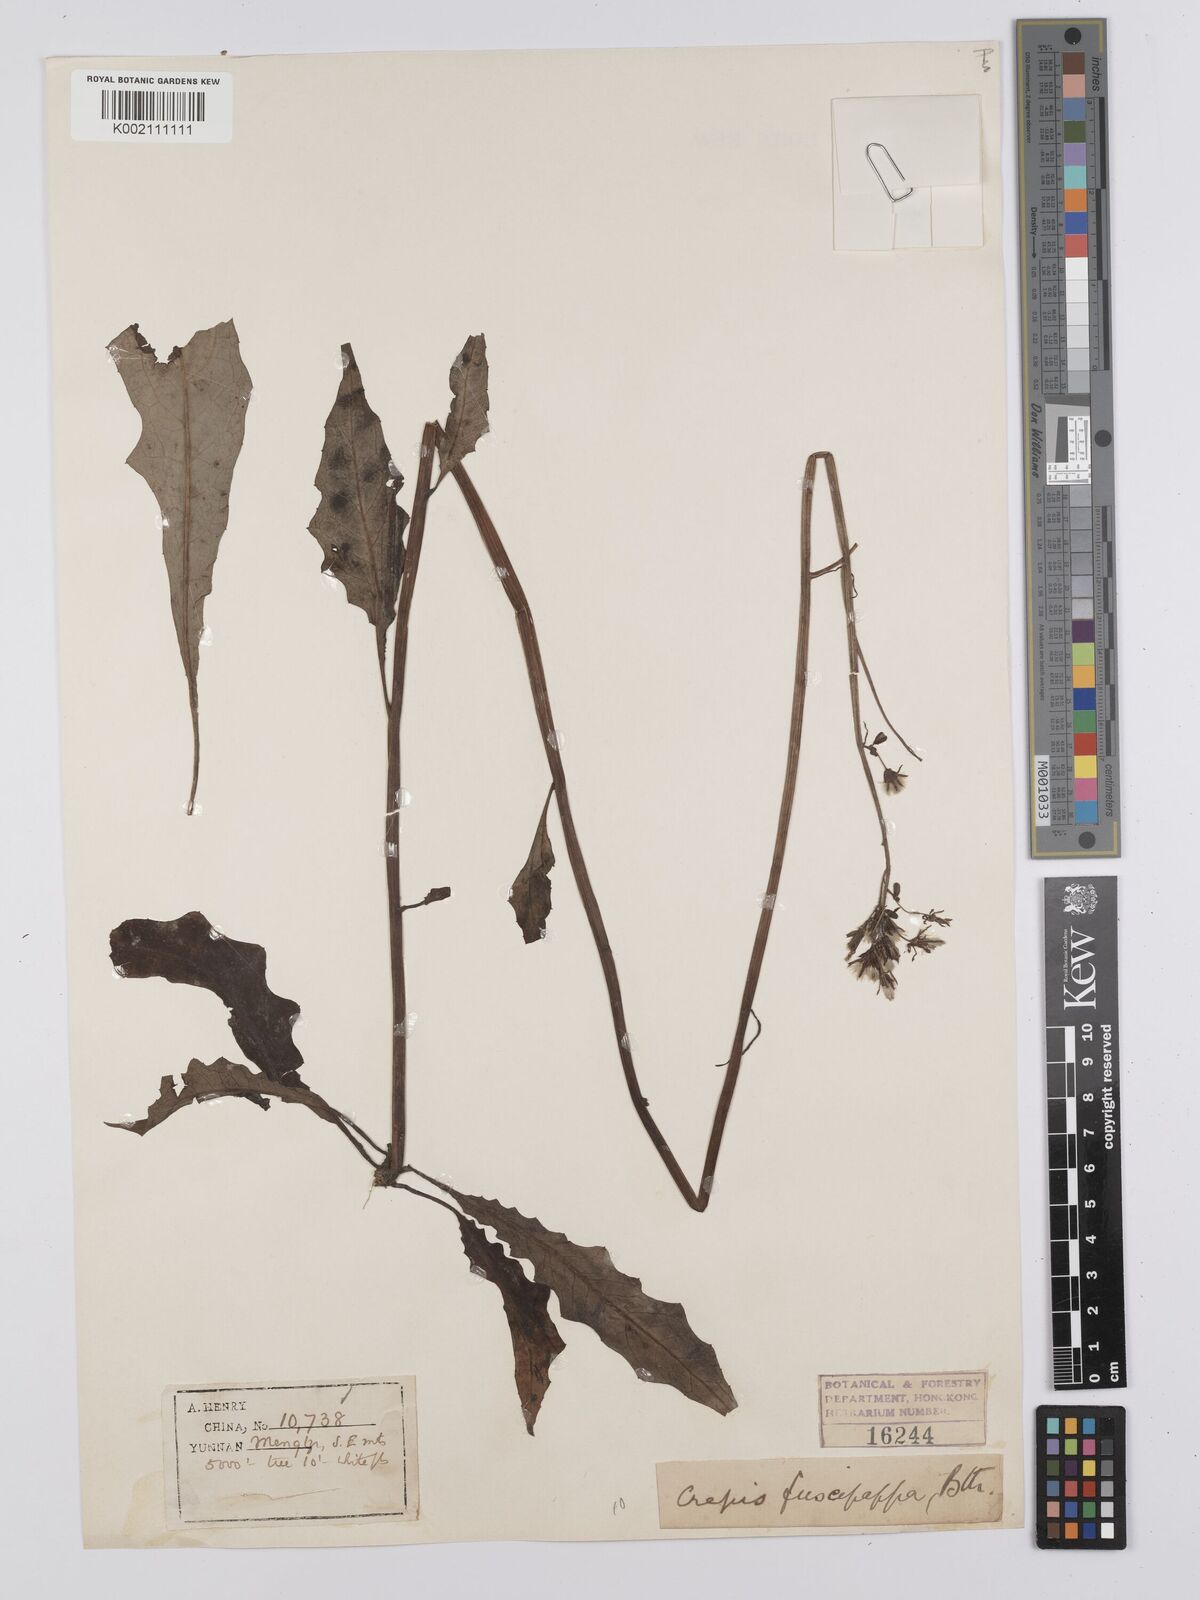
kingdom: Plantae
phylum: Tracheophyta
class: Magnoliopsida
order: Asterales
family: Asteraceae
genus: Youngia
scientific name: Youngia
